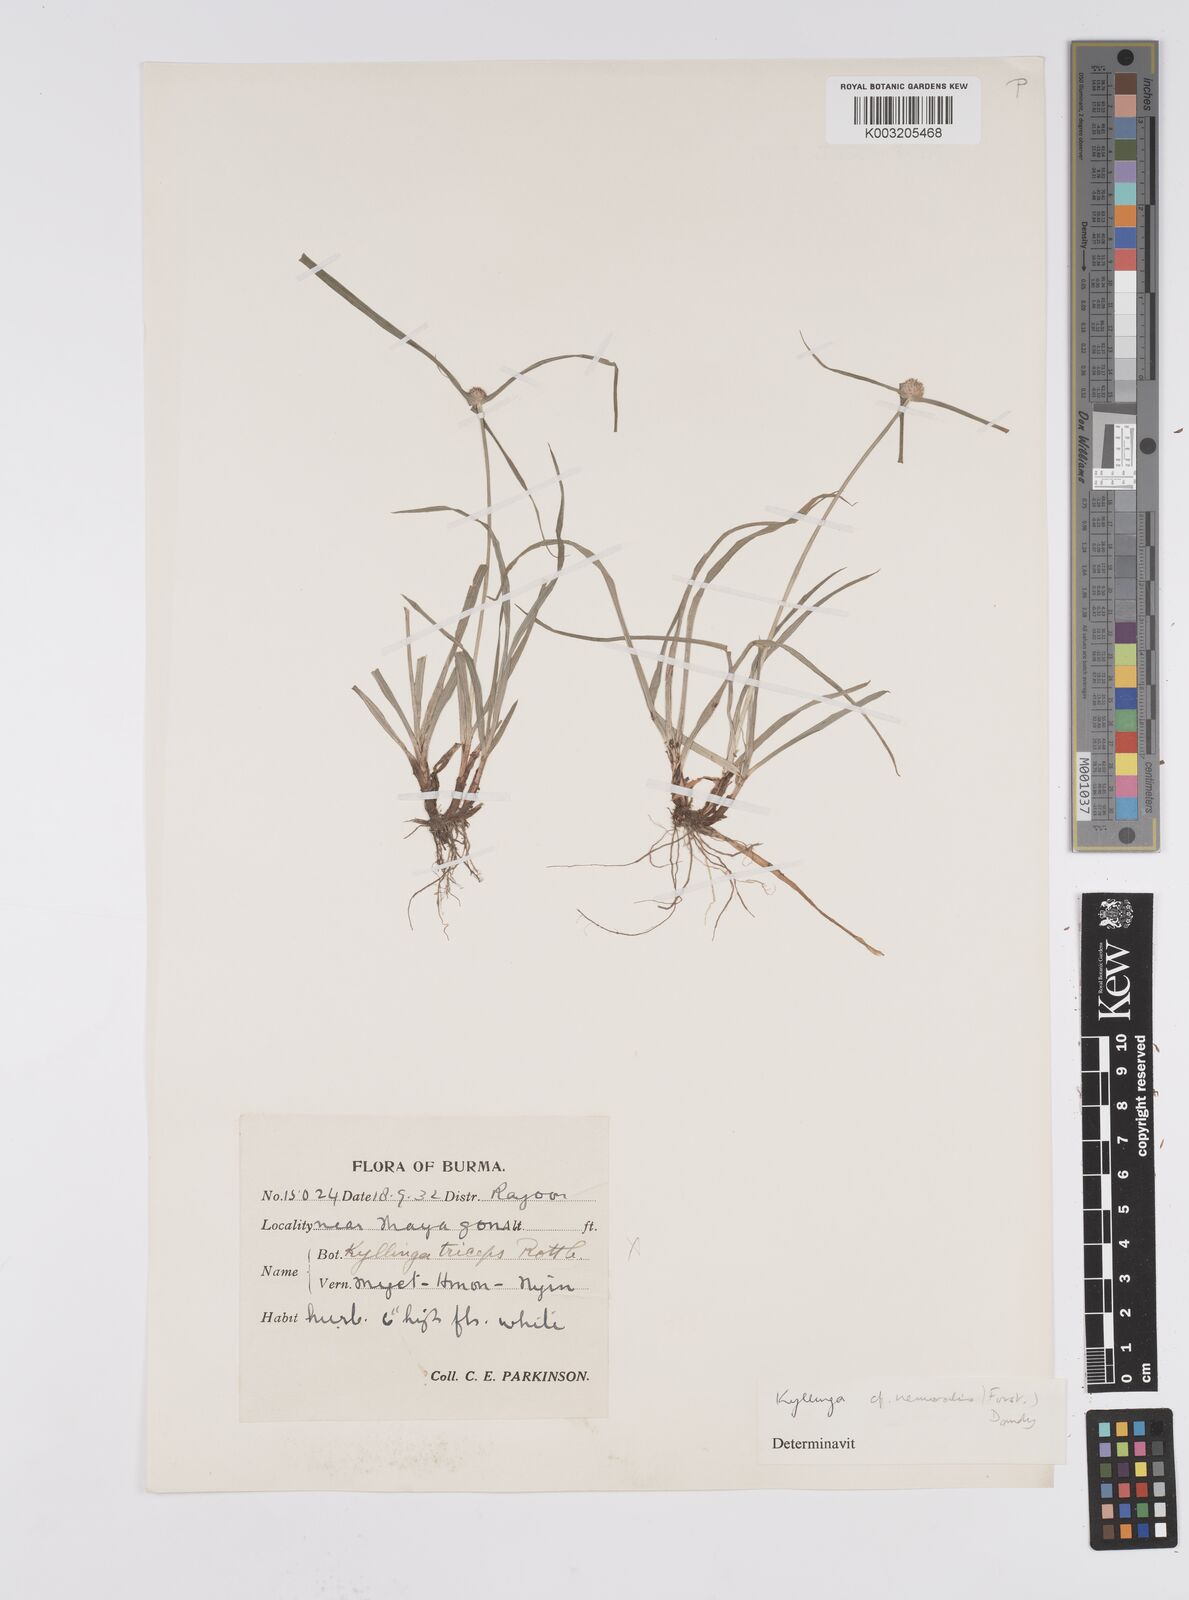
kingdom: Plantae
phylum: Tracheophyta
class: Liliopsida
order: Poales
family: Cyperaceae
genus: Cyperus
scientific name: Cyperus nemoralis
